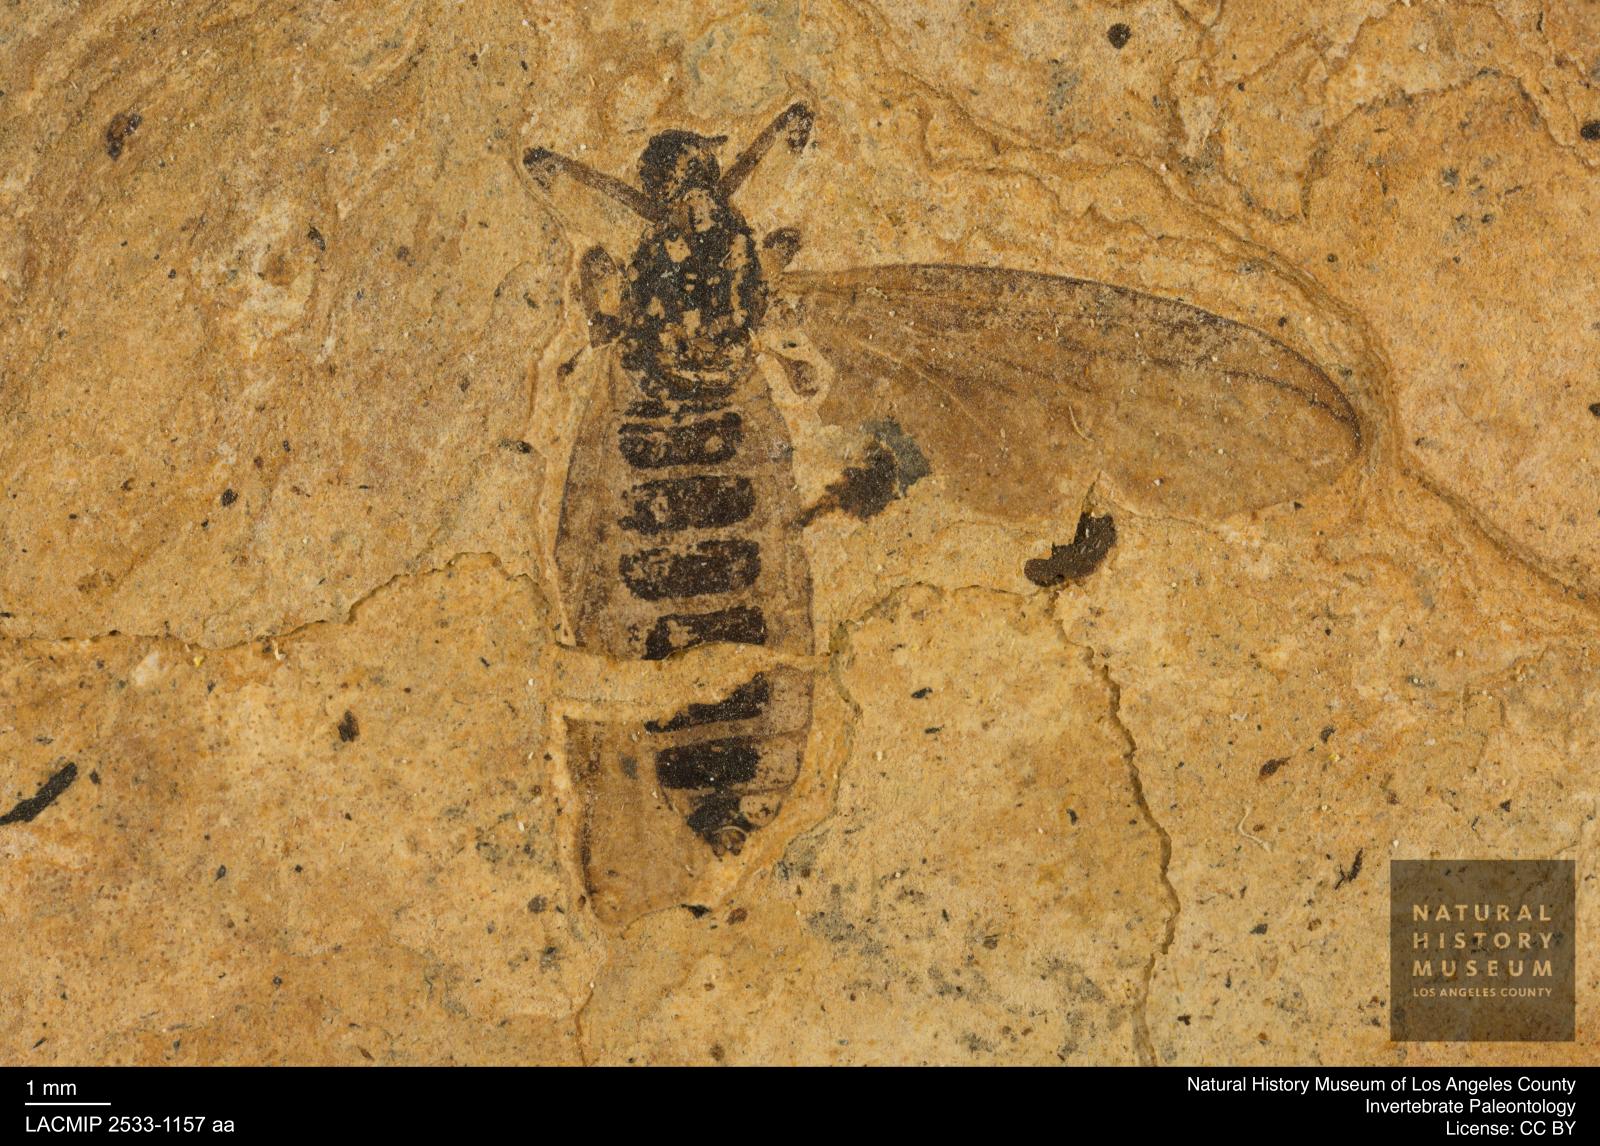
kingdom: Animalia
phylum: Arthropoda
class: Insecta
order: Diptera
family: Bibionidae
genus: Plecia
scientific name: Plecia hypogaea
